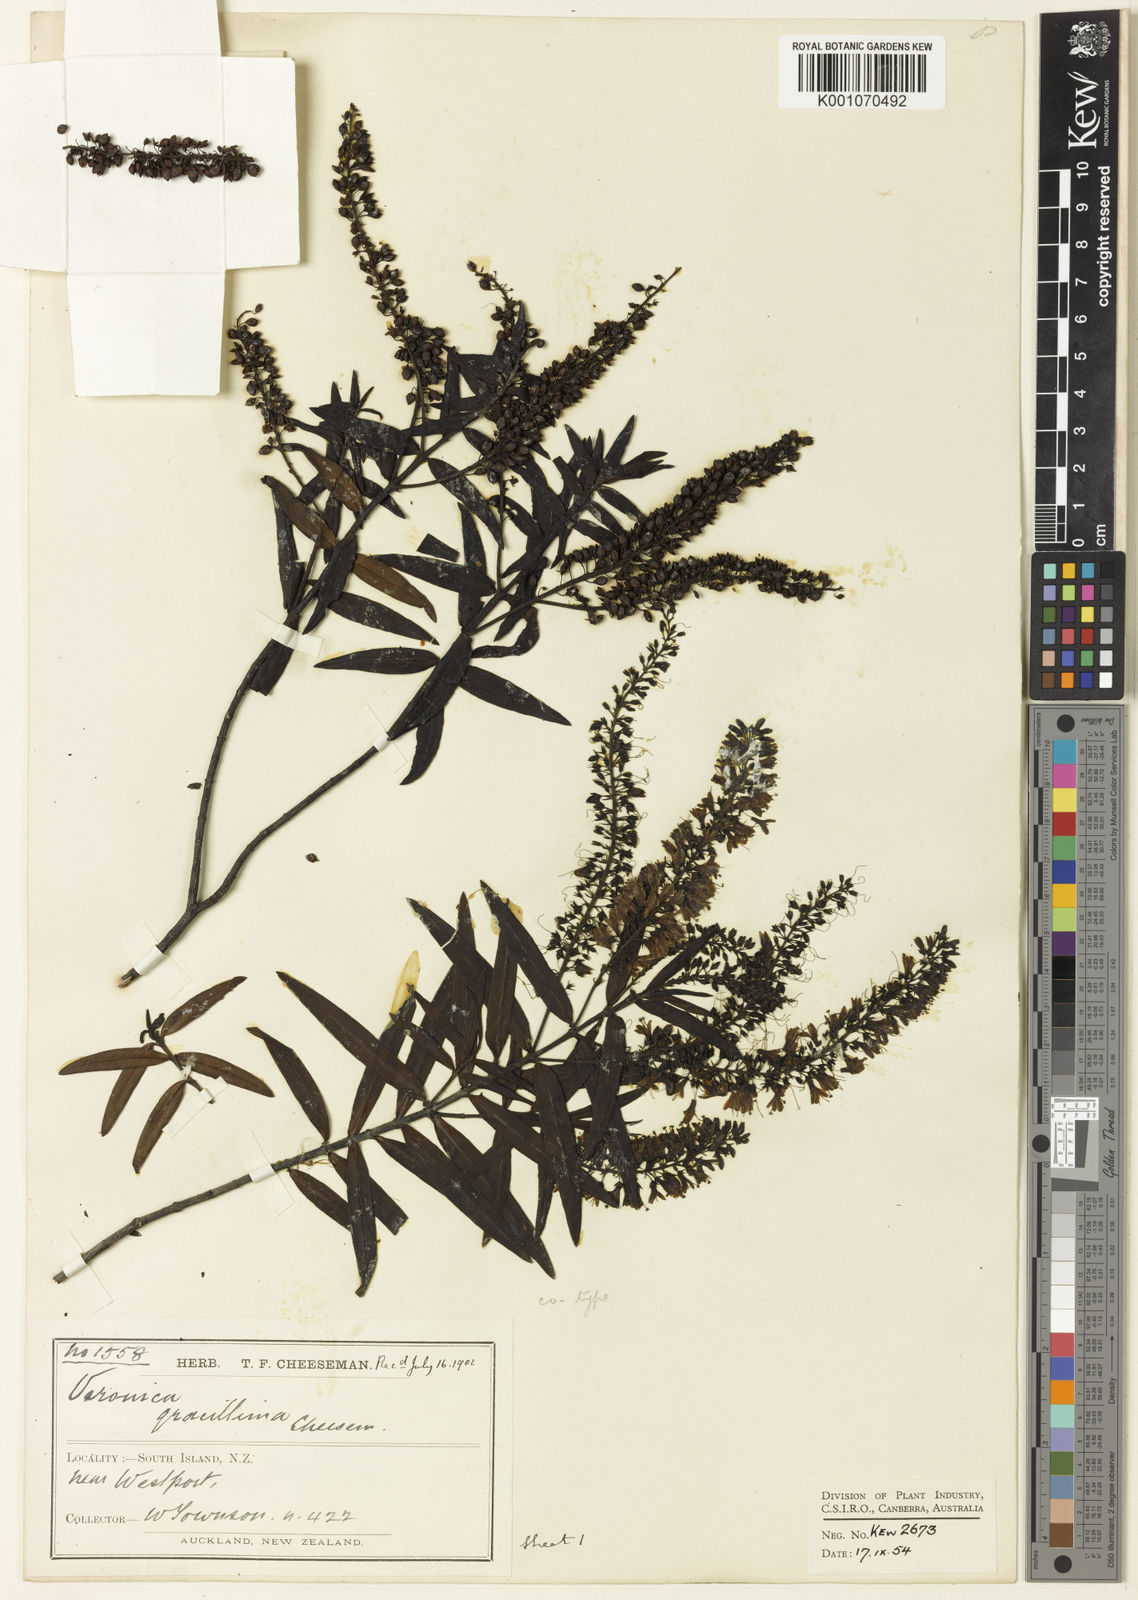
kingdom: Plantae
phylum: Tracheophyta
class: Magnoliopsida
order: Lamiales
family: Plantaginaceae
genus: Veronica
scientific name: Veronica leiophylla
